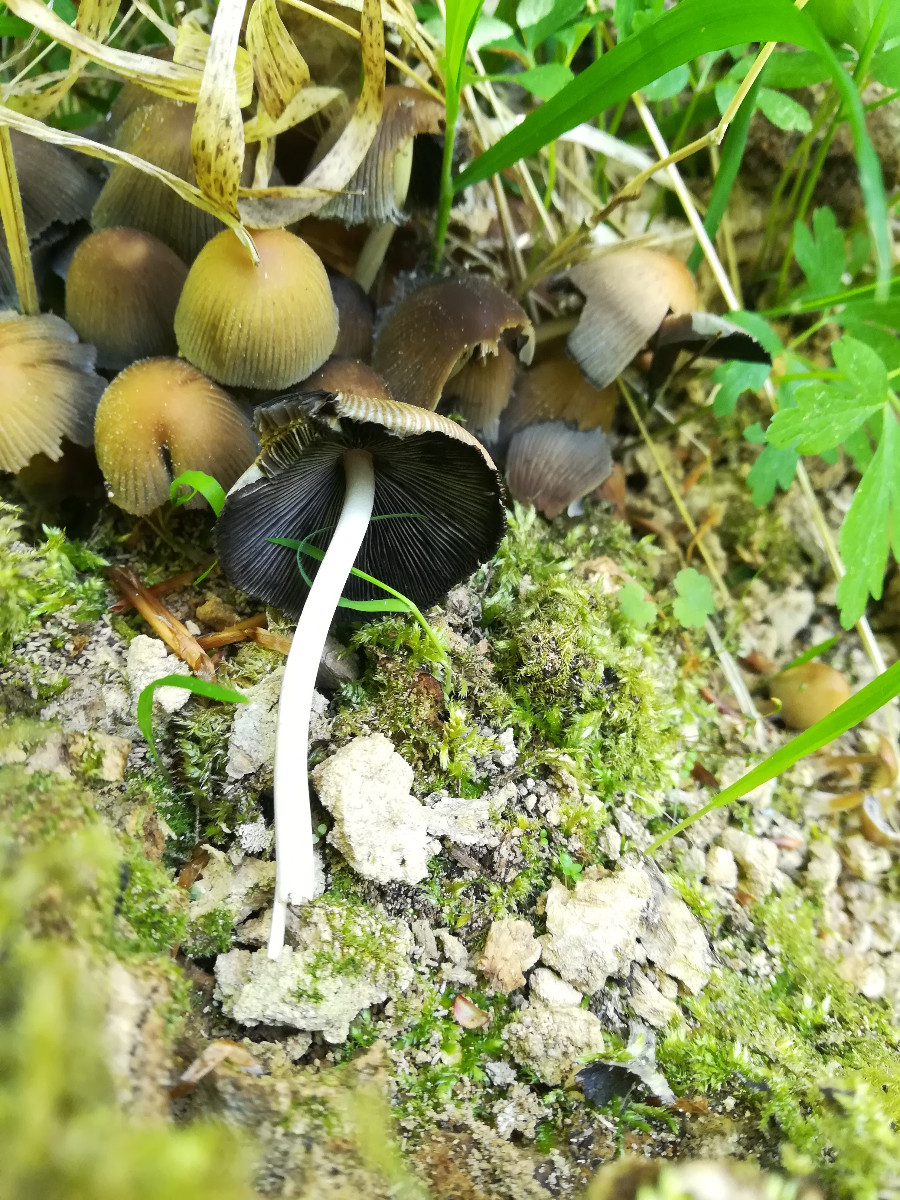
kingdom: Fungi
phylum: Basidiomycota
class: Agaricomycetes
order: Agaricales
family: Psathyrellaceae
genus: Coprinellus
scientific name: Coprinellus micaceus
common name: glimmer-blækhat
